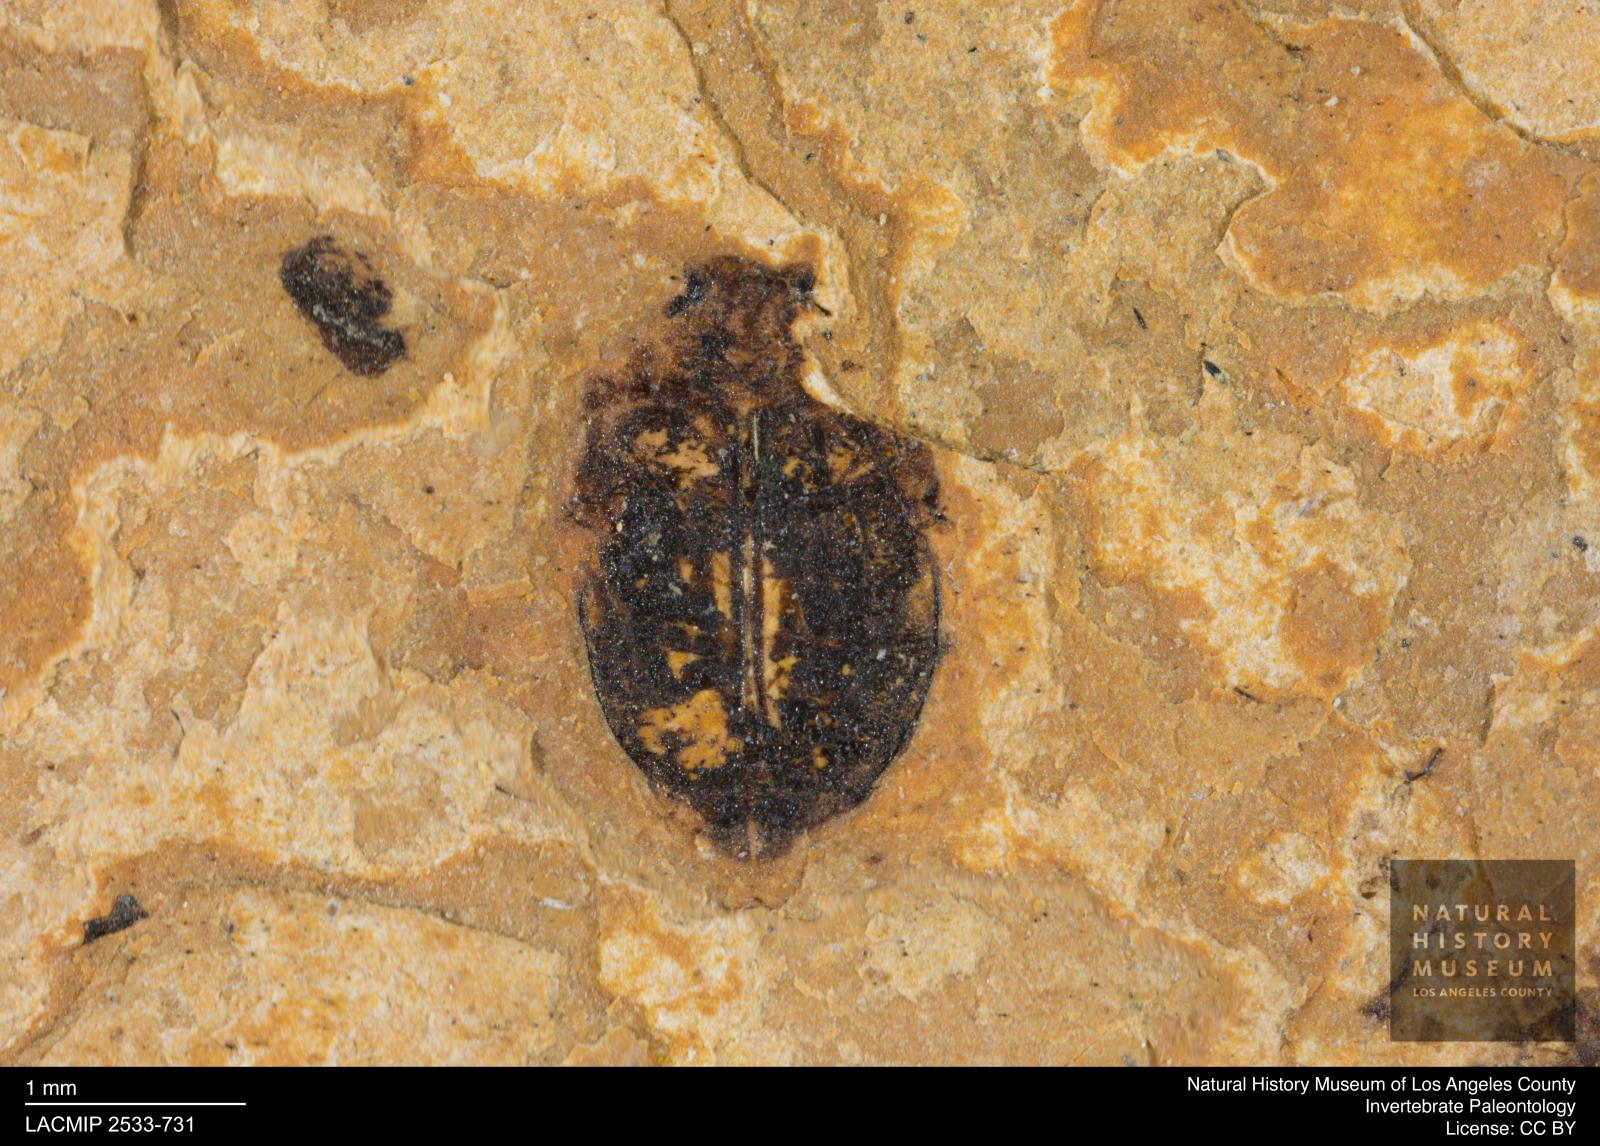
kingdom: Animalia
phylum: Arthropoda
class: Insecta
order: Coleoptera
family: Dytiscidae
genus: Oreodytes
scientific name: Oreodytes cryptolineatus
